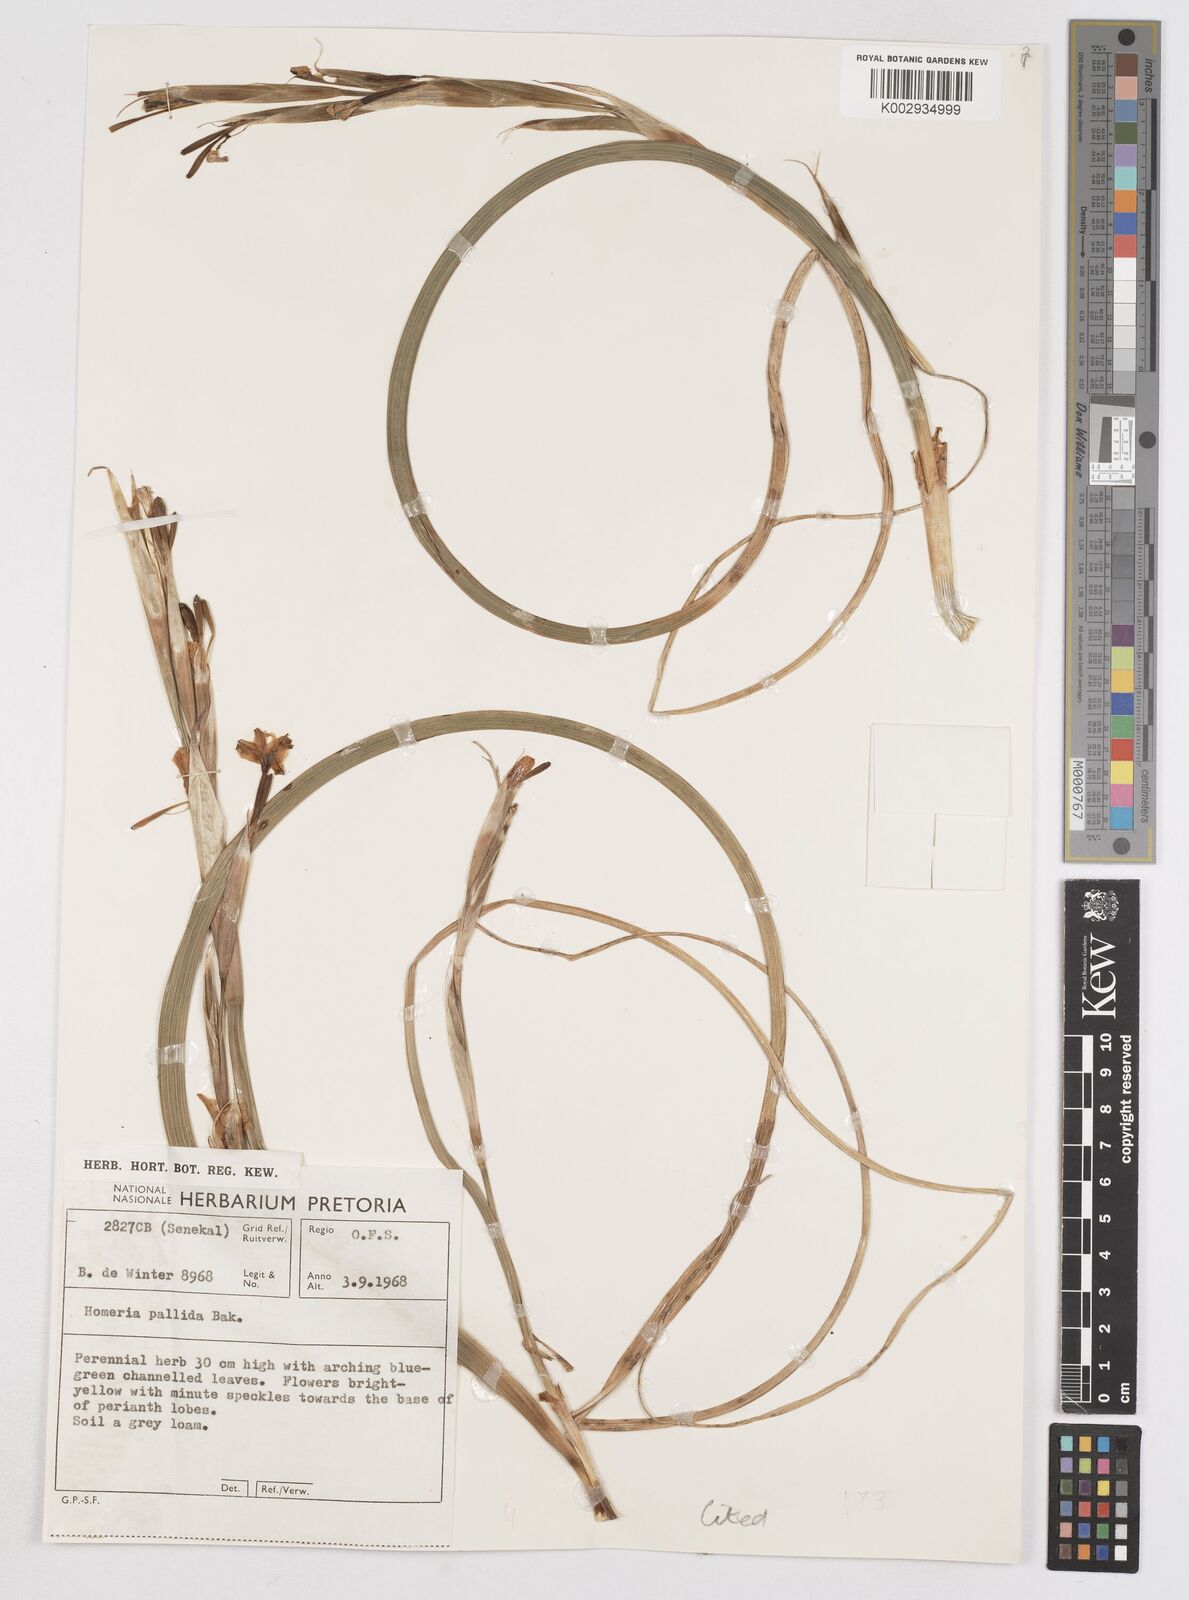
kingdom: Plantae
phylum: Tracheophyta
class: Liliopsida
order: Asparagales
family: Iridaceae
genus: Moraea
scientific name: Moraea pallida
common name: Yellow tulp
